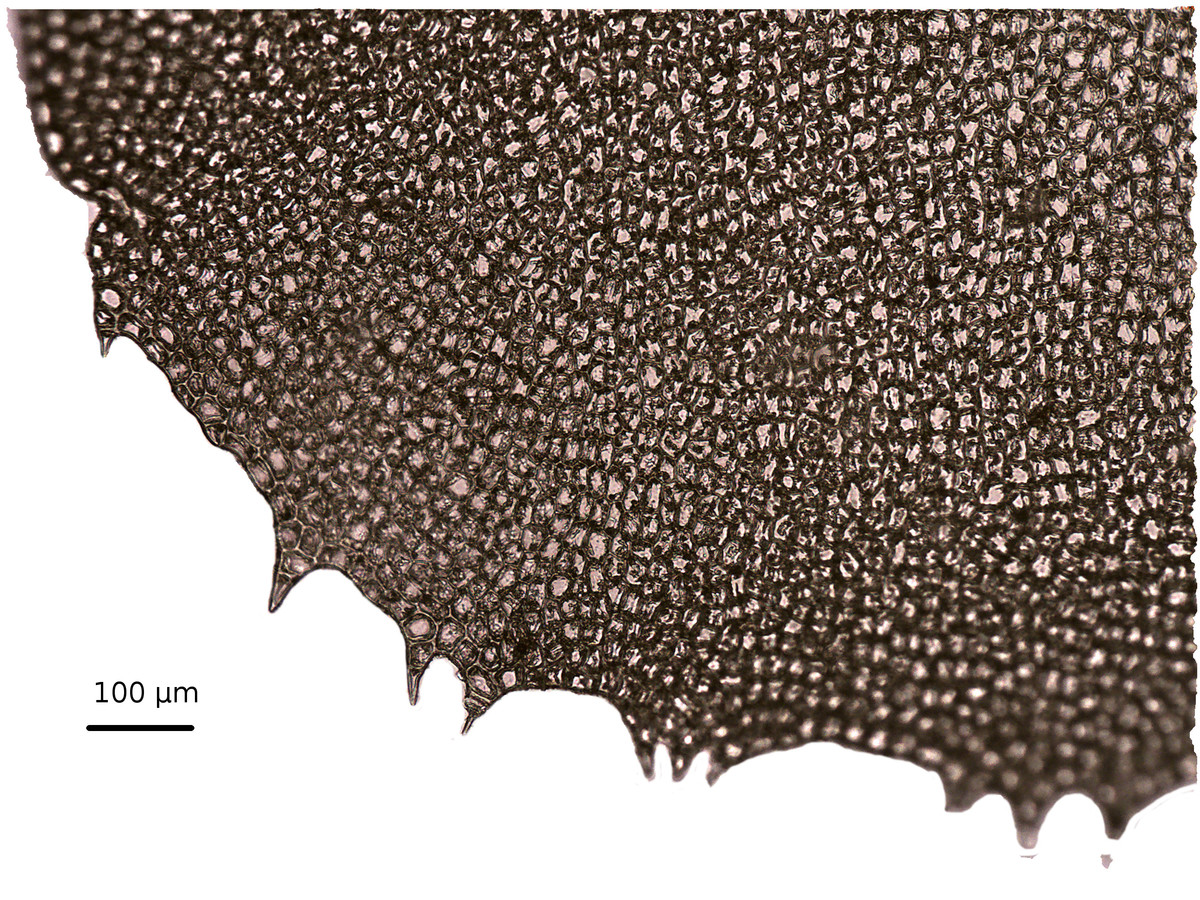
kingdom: Plantae
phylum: Marchantiophyta
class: Jungermanniopsida
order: Jungermanniales
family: Plagiochilaceae
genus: Plagiochila
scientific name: Plagiochila integerrima
